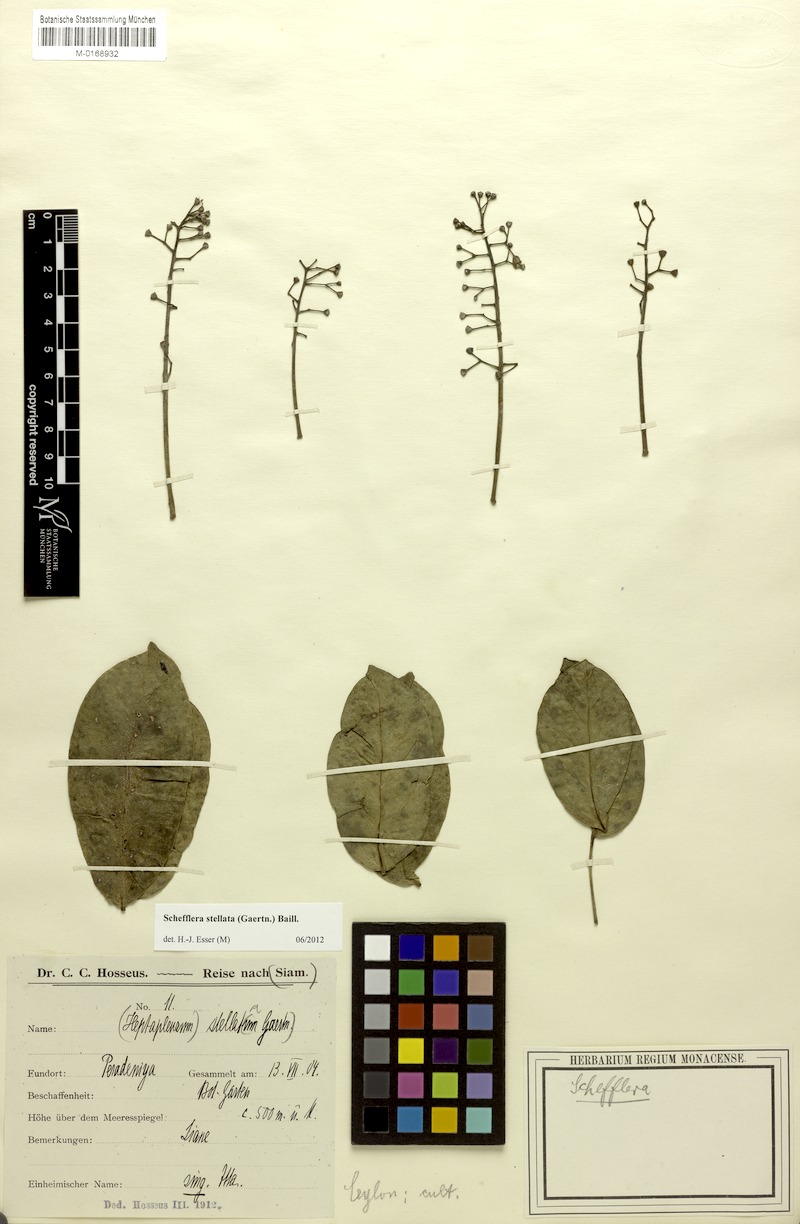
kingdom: Plantae
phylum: Tracheophyta
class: Magnoliopsida
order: Apiales
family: Araliaceae
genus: Heptapleurum
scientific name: Heptapleurum stellatum
